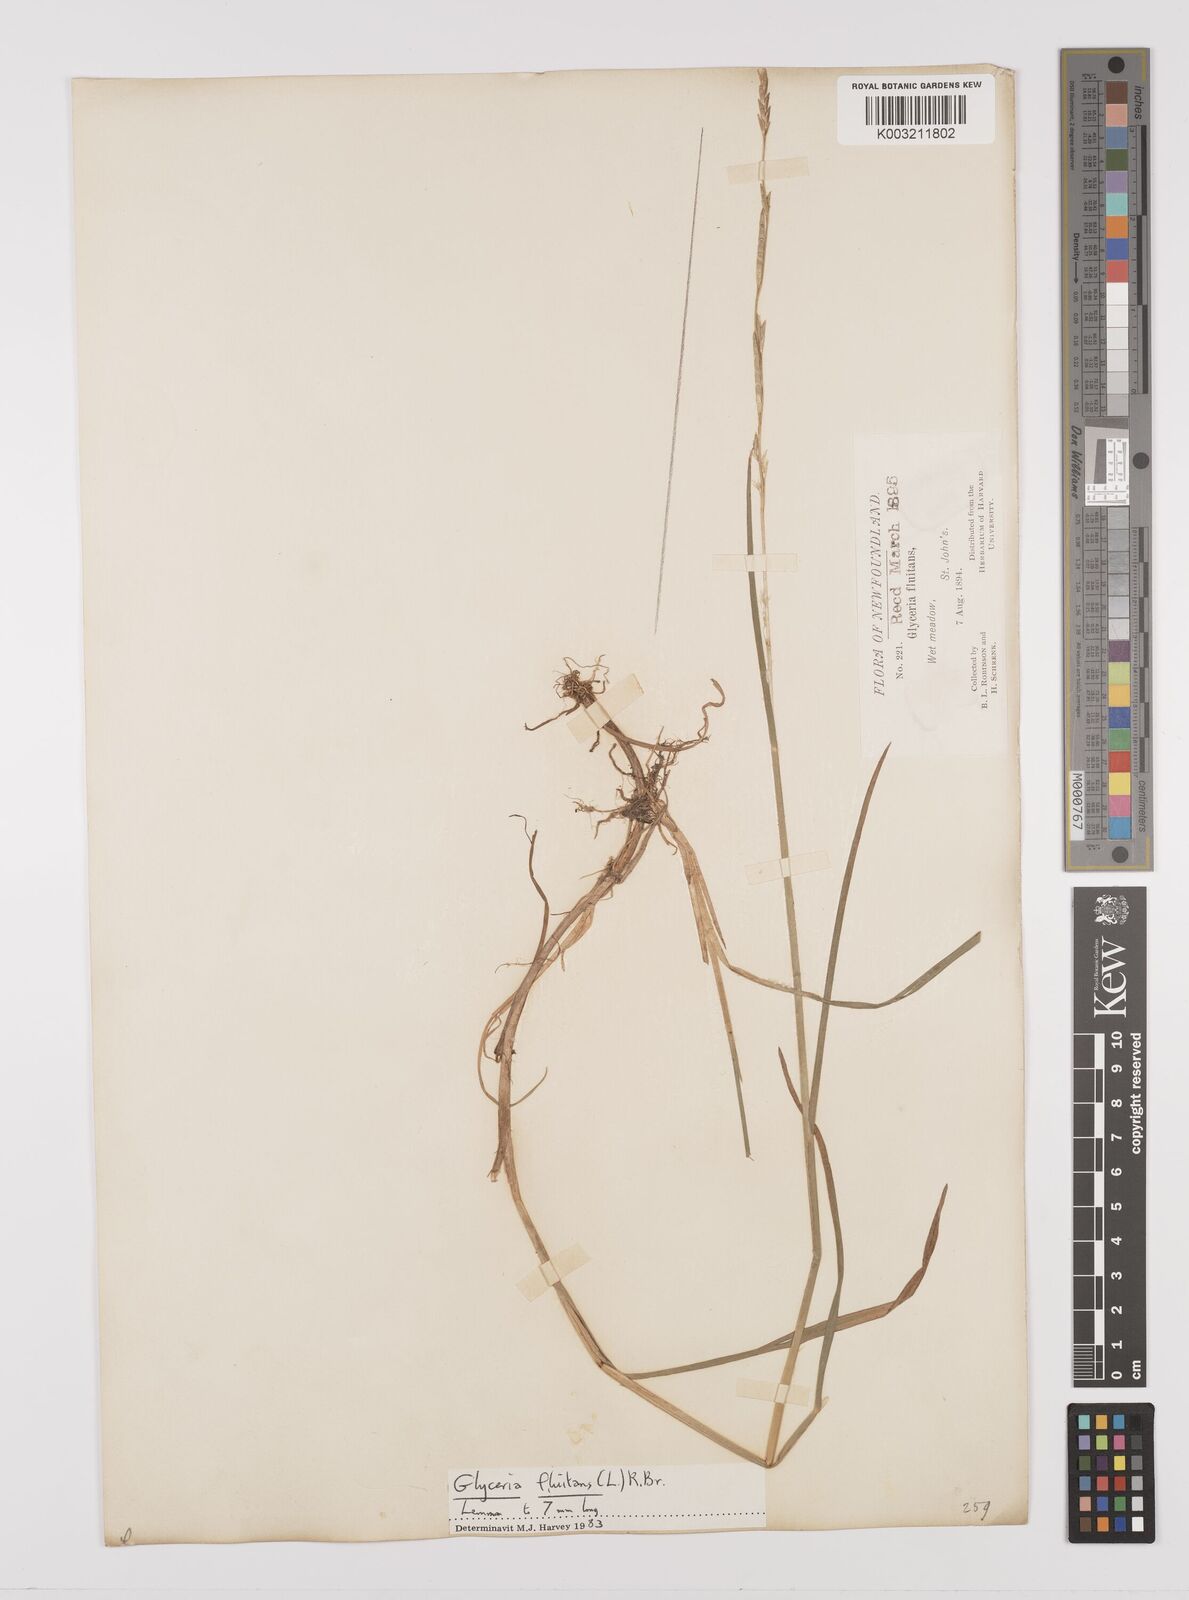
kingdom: Plantae
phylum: Tracheophyta
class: Liliopsida
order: Poales
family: Poaceae
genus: Glyceria
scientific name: Glyceria fluitans
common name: Floating sweet-grass
